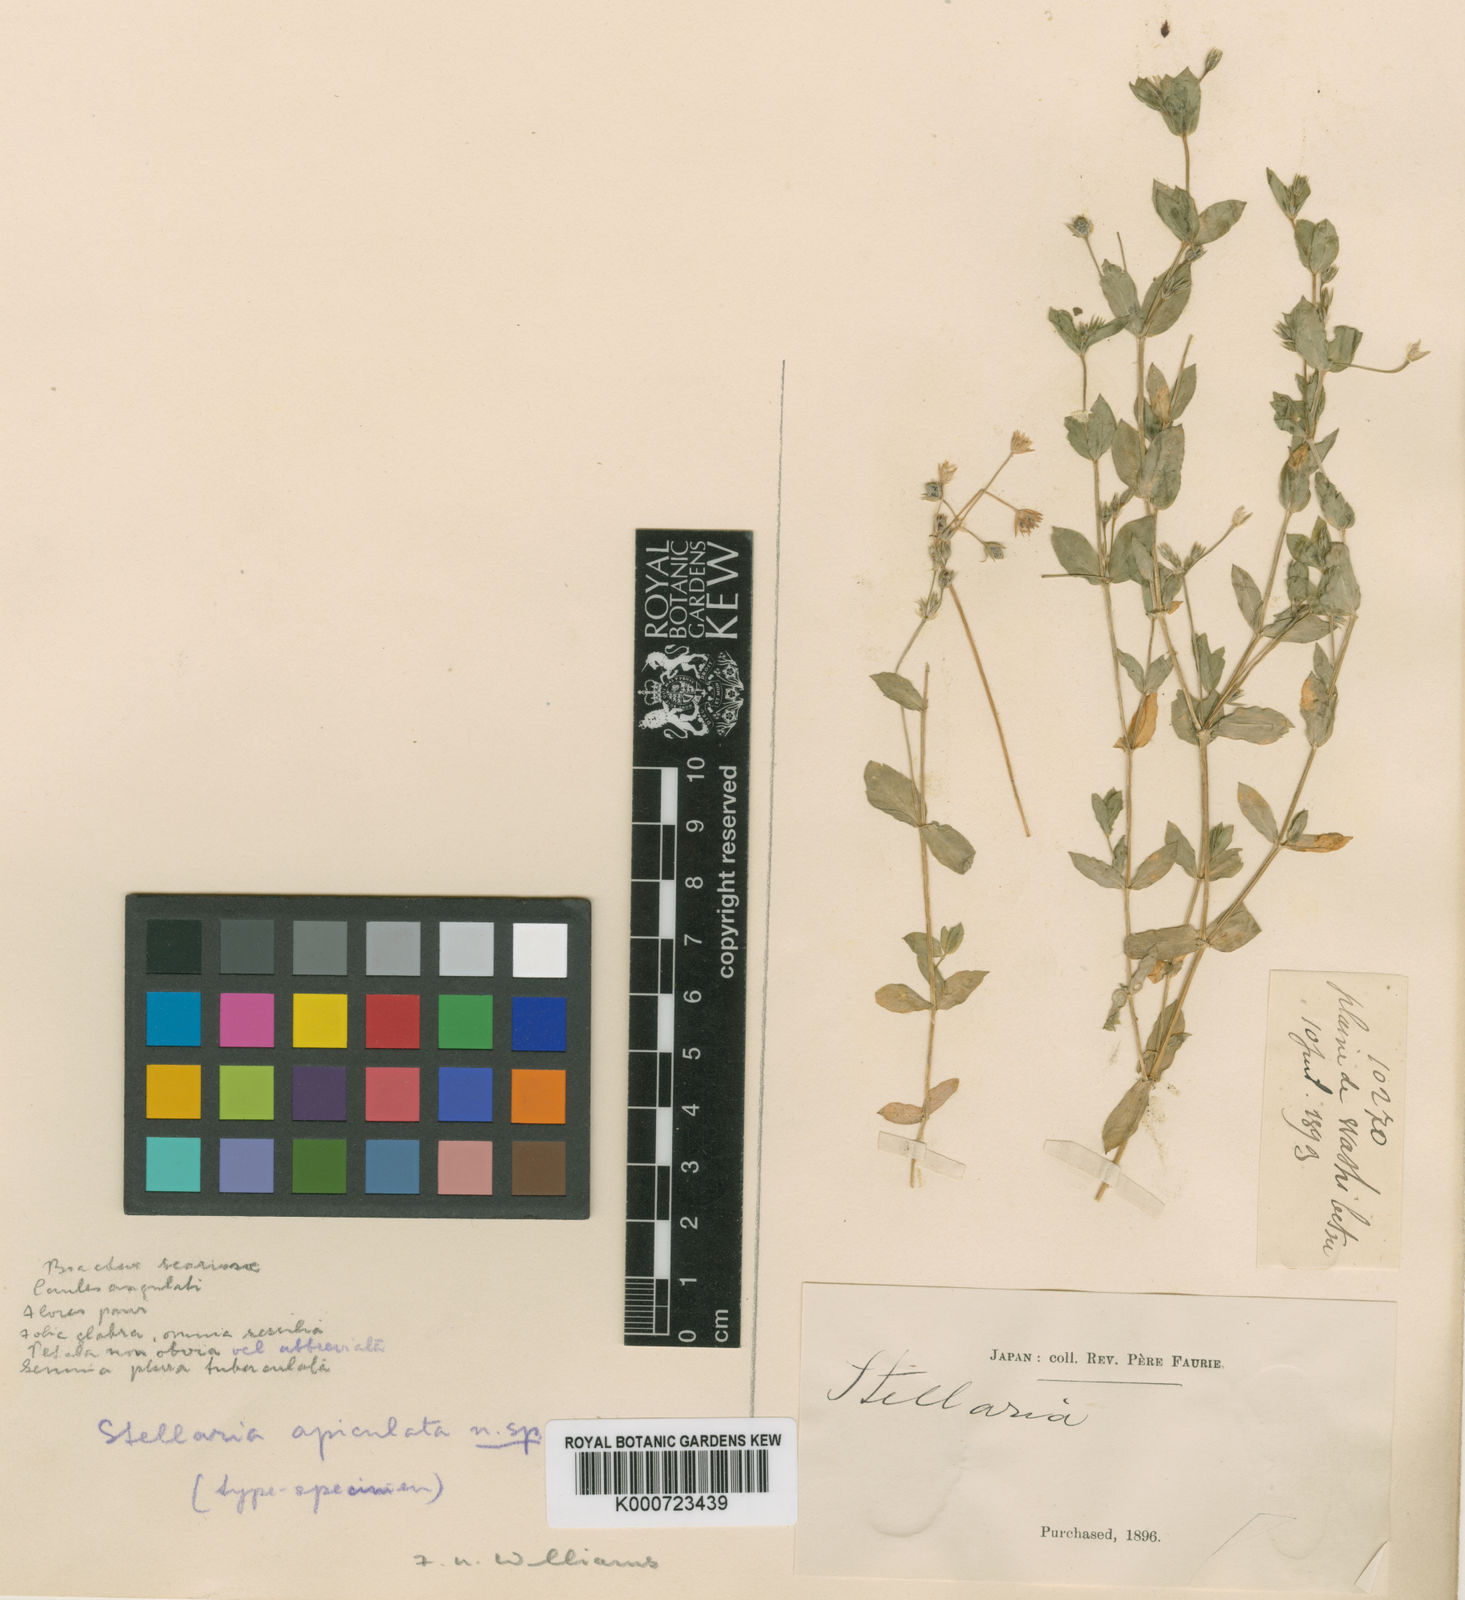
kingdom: Plantae
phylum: Tracheophyta
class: Magnoliopsida
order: Caryophyllales
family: Caryophyllaceae
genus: Stellaria
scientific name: Stellaria
